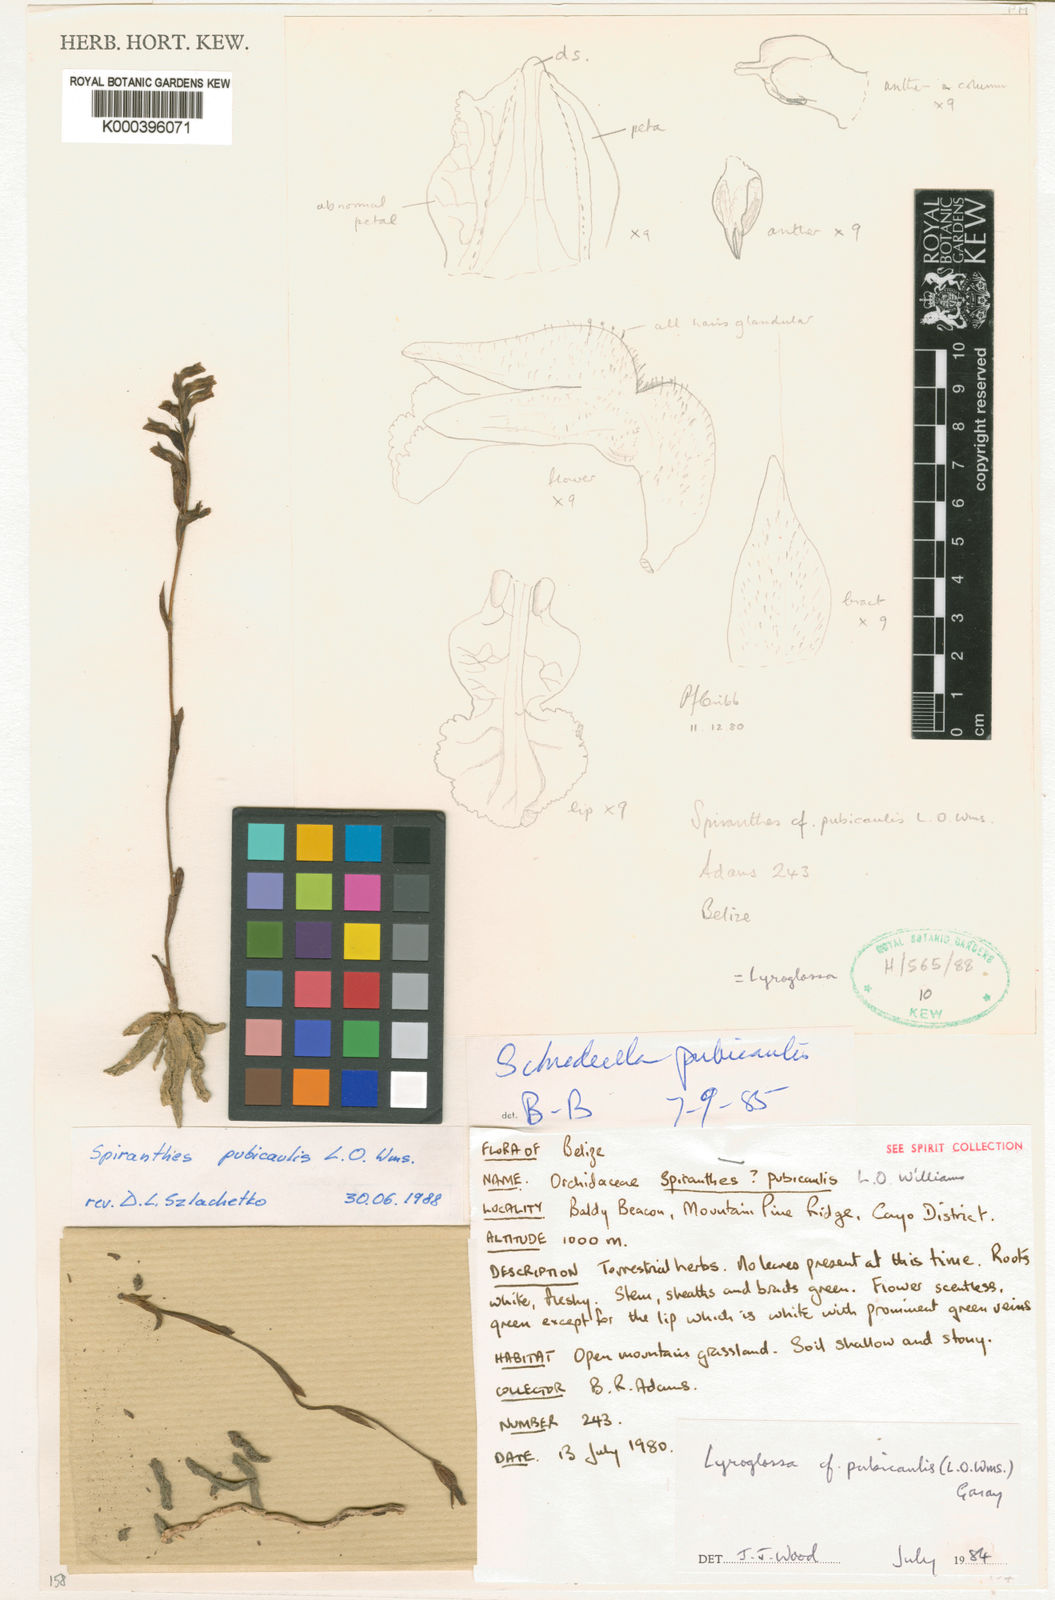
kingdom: Plantae
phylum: Tracheophyta
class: Liliopsida
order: Asparagales
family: Orchidaceae
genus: Lyroglossa
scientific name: Lyroglossa pubicaulis
